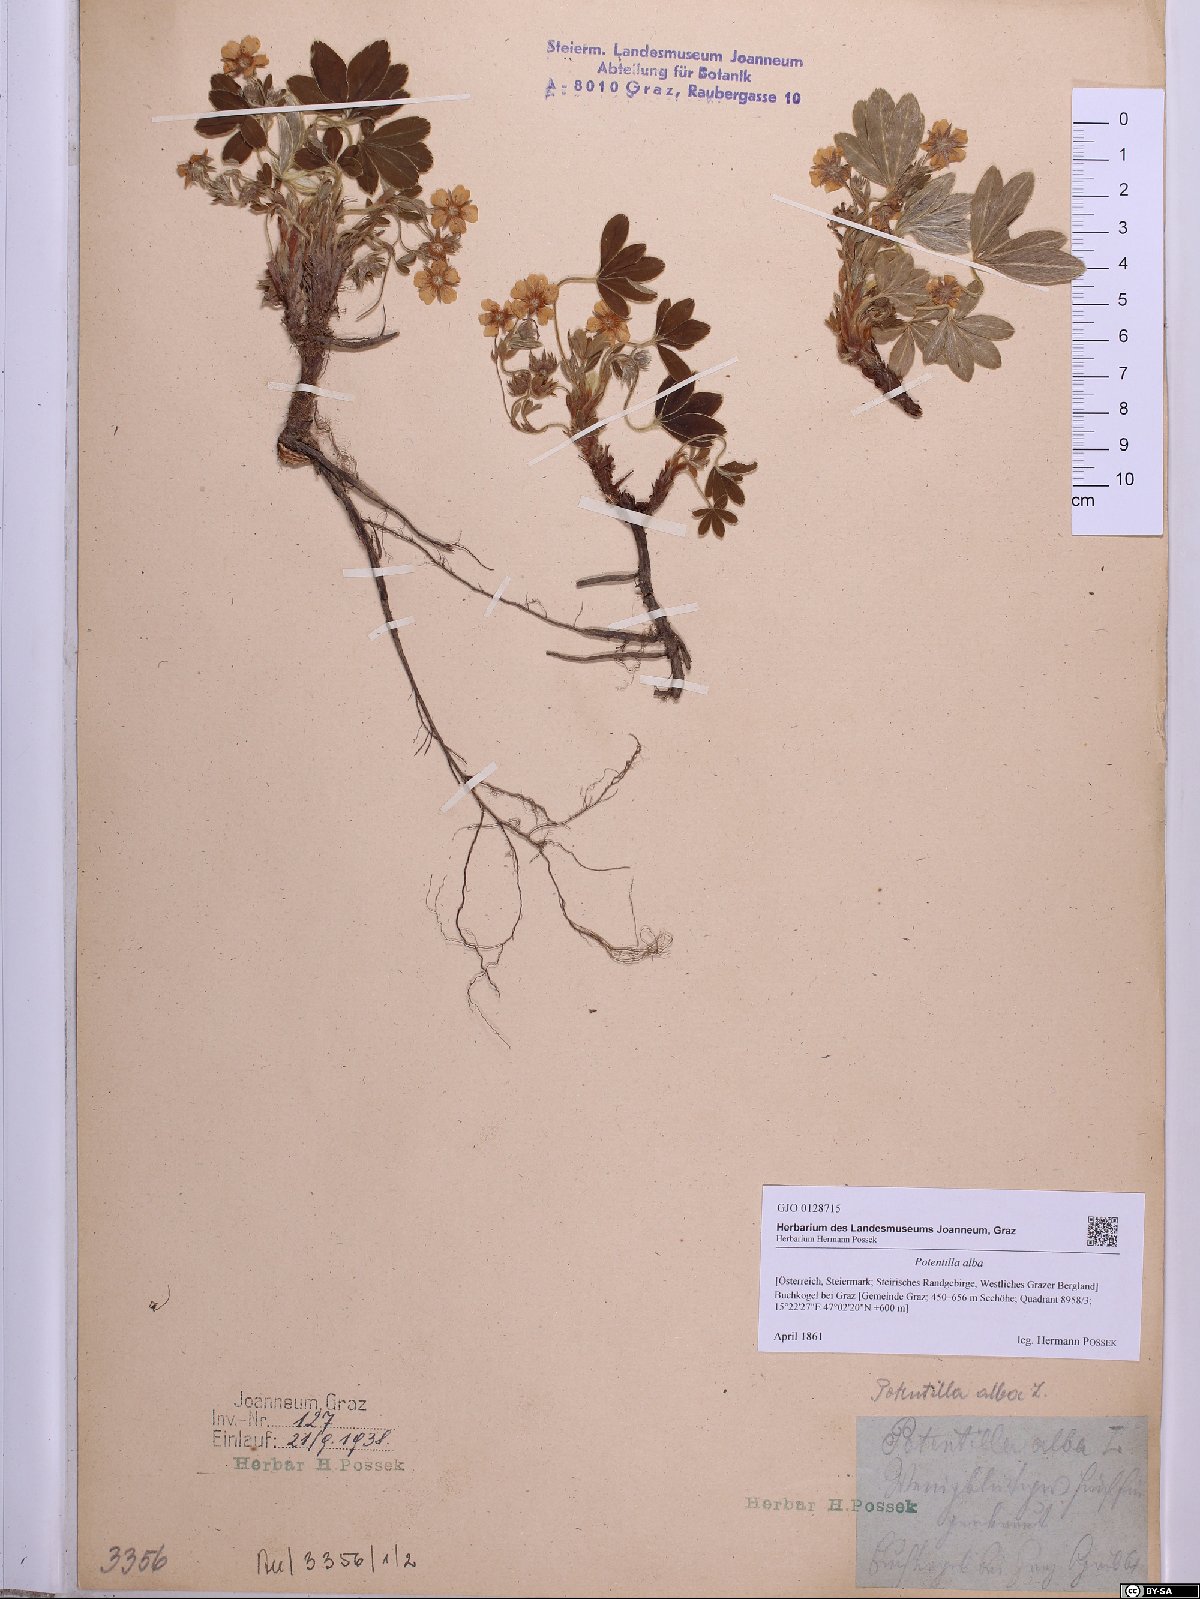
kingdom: Plantae
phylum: Tracheophyta
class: Magnoliopsida
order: Rosales
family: Rosaceae
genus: Potentilla
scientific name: Potentilla alba
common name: White cinquefoil
